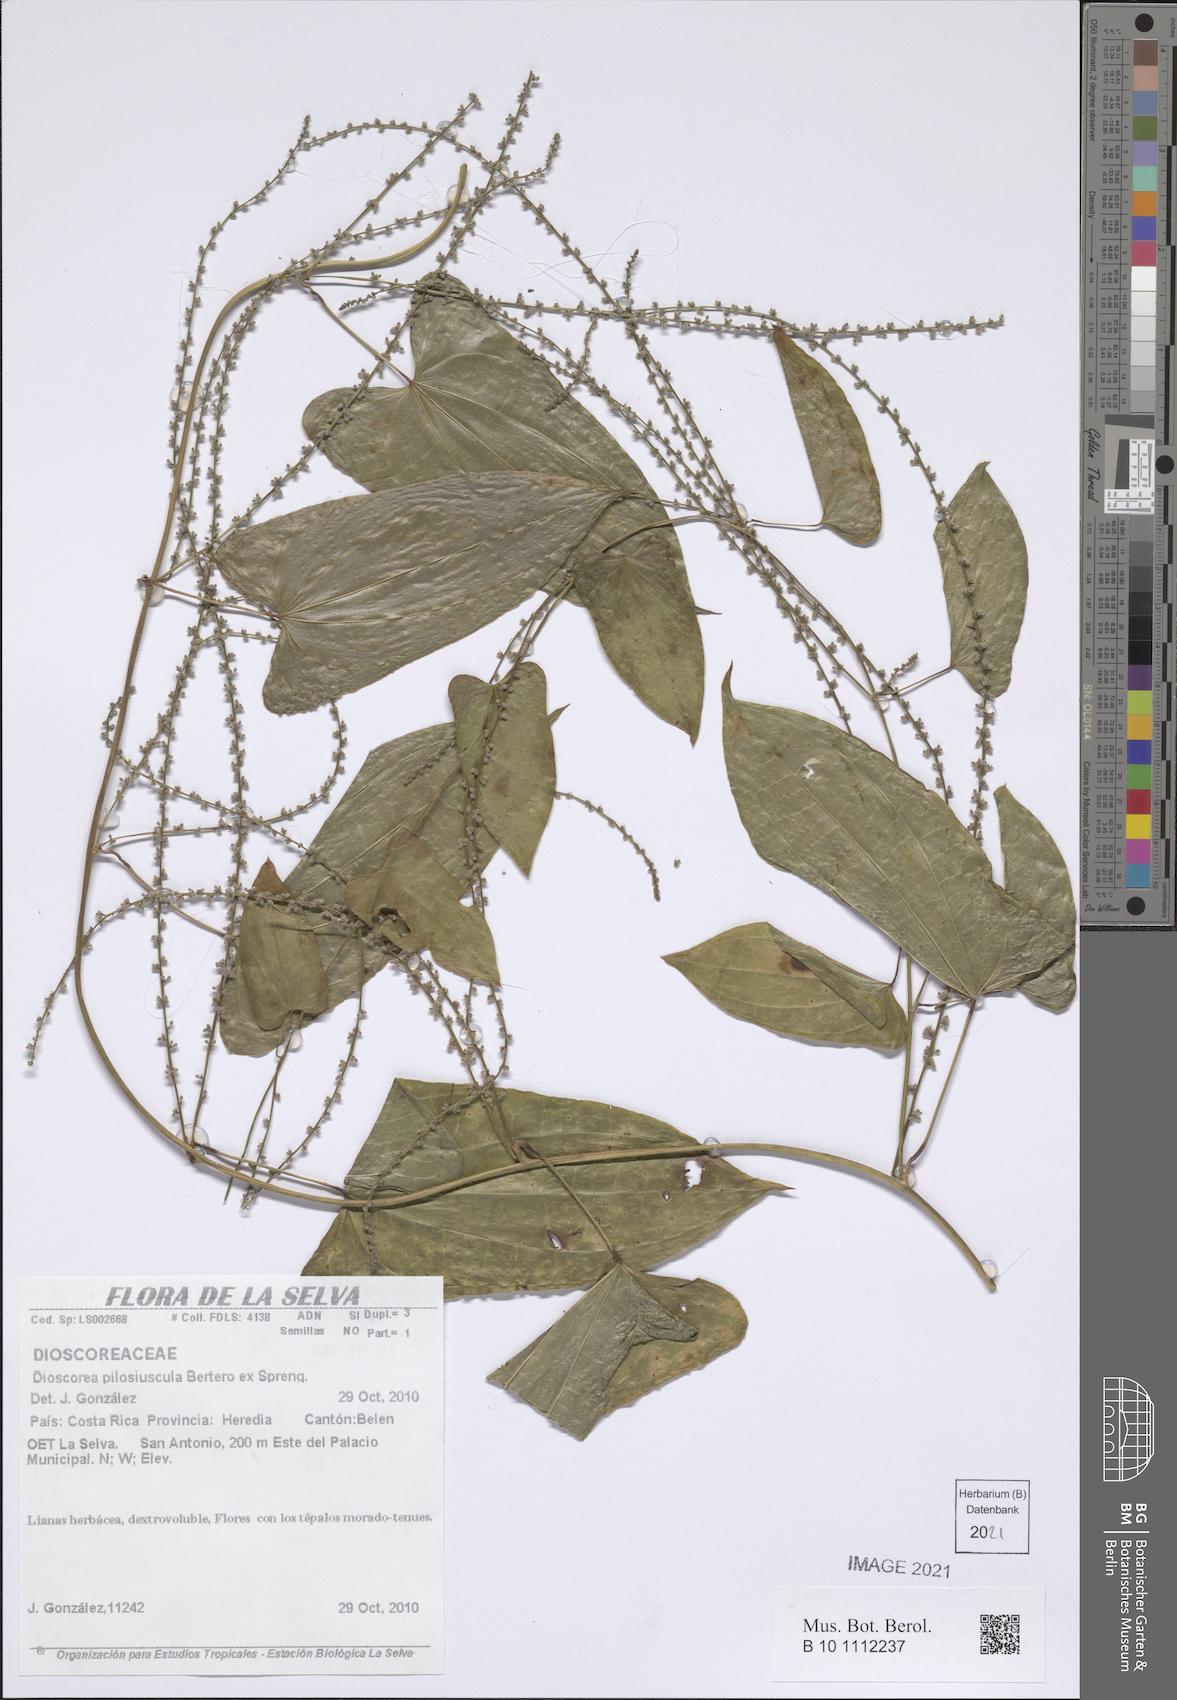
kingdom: Plantae
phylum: Tracheophyta
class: Liliopsida
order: Dioscoreales
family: Dioscoreaceae
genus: Dioscorea
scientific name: Dioscorea pilosiuscula
